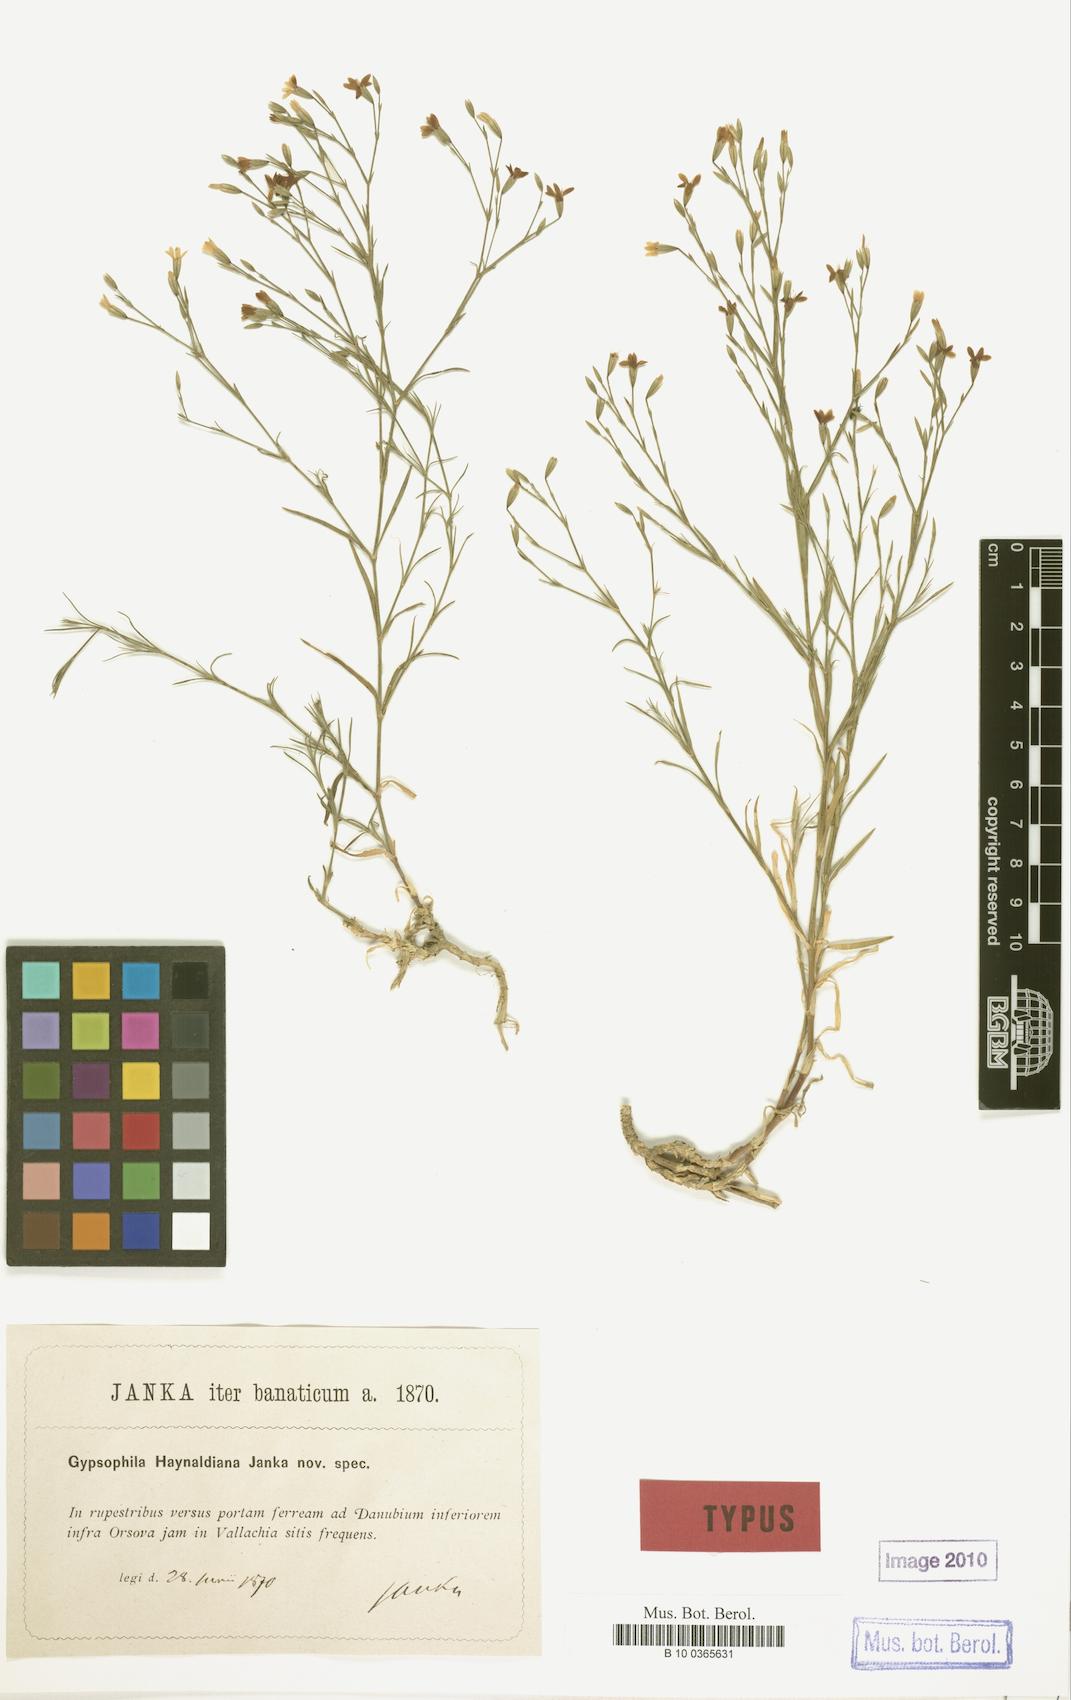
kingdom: Plantae
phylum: Tracheophyta
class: Magnoliopsida
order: Caryophyllales
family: Caryophyllaceae
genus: Gypsophila
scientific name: Gypsophila haynaldiana
